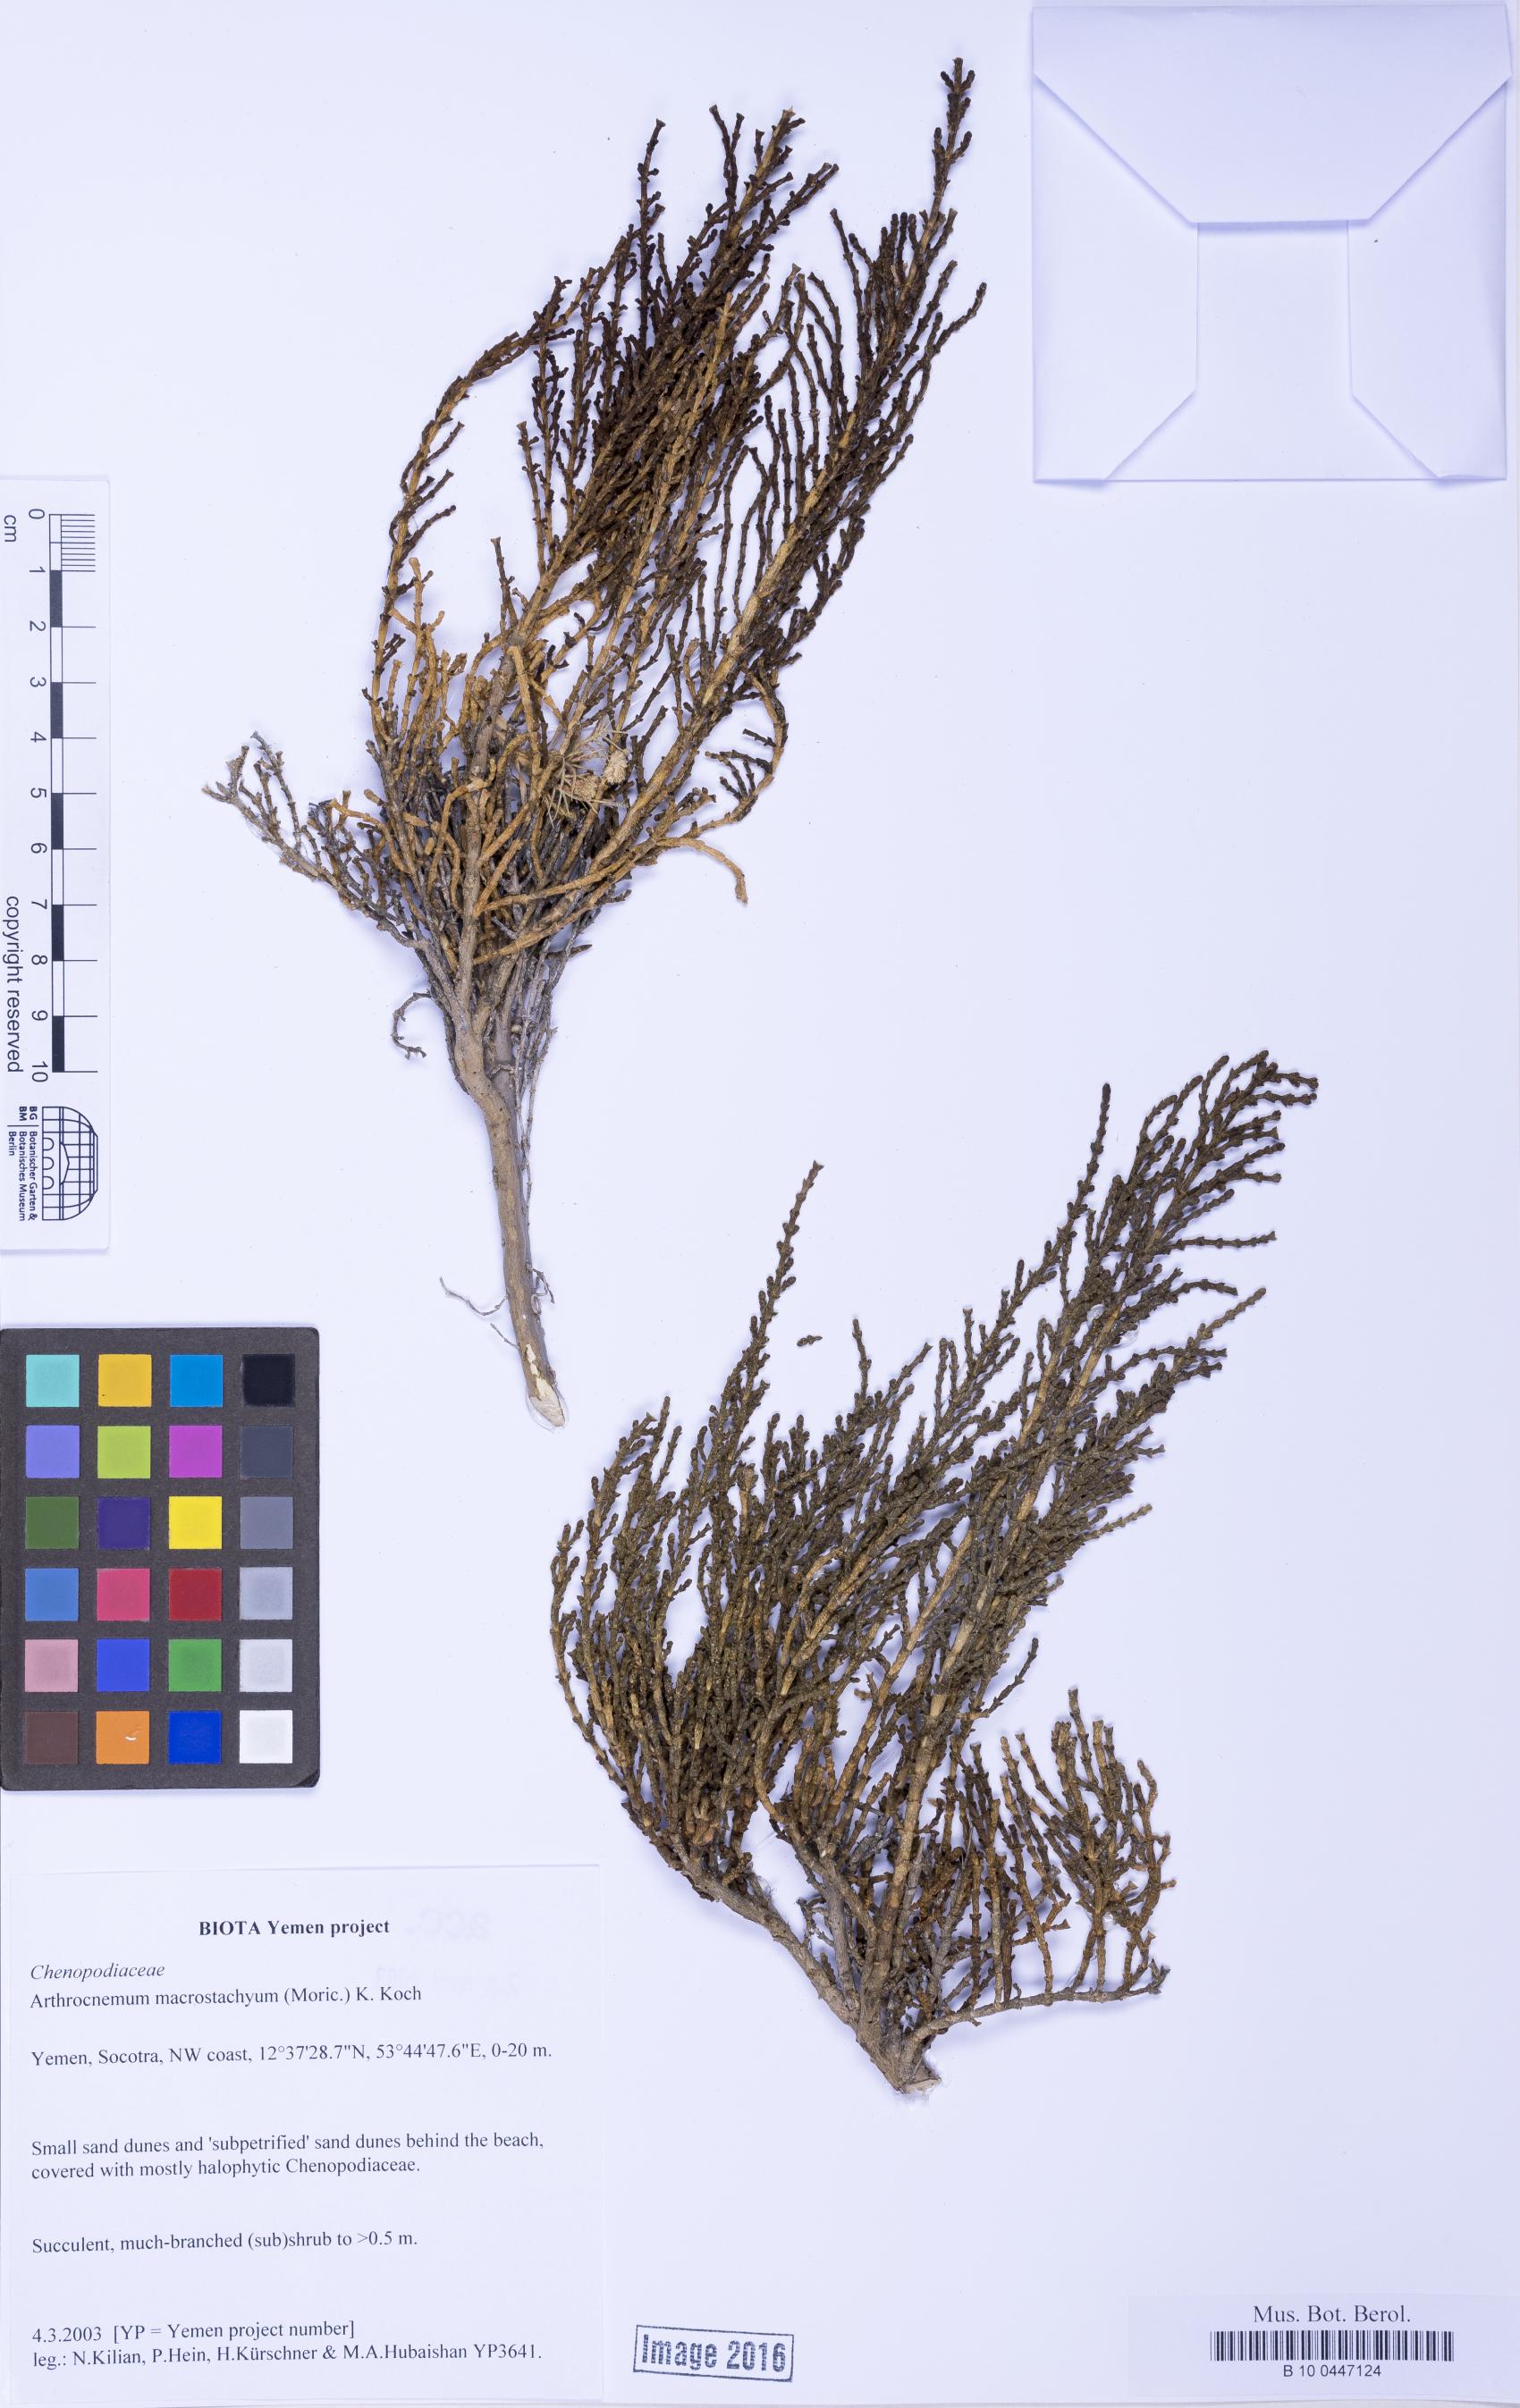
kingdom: Plantae
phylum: Tracheophyta
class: Magnoliopsida
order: Caryophyllales
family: Amaranthaceae
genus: Arthrocaulon
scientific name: Arthrocaulon macrostachyum
